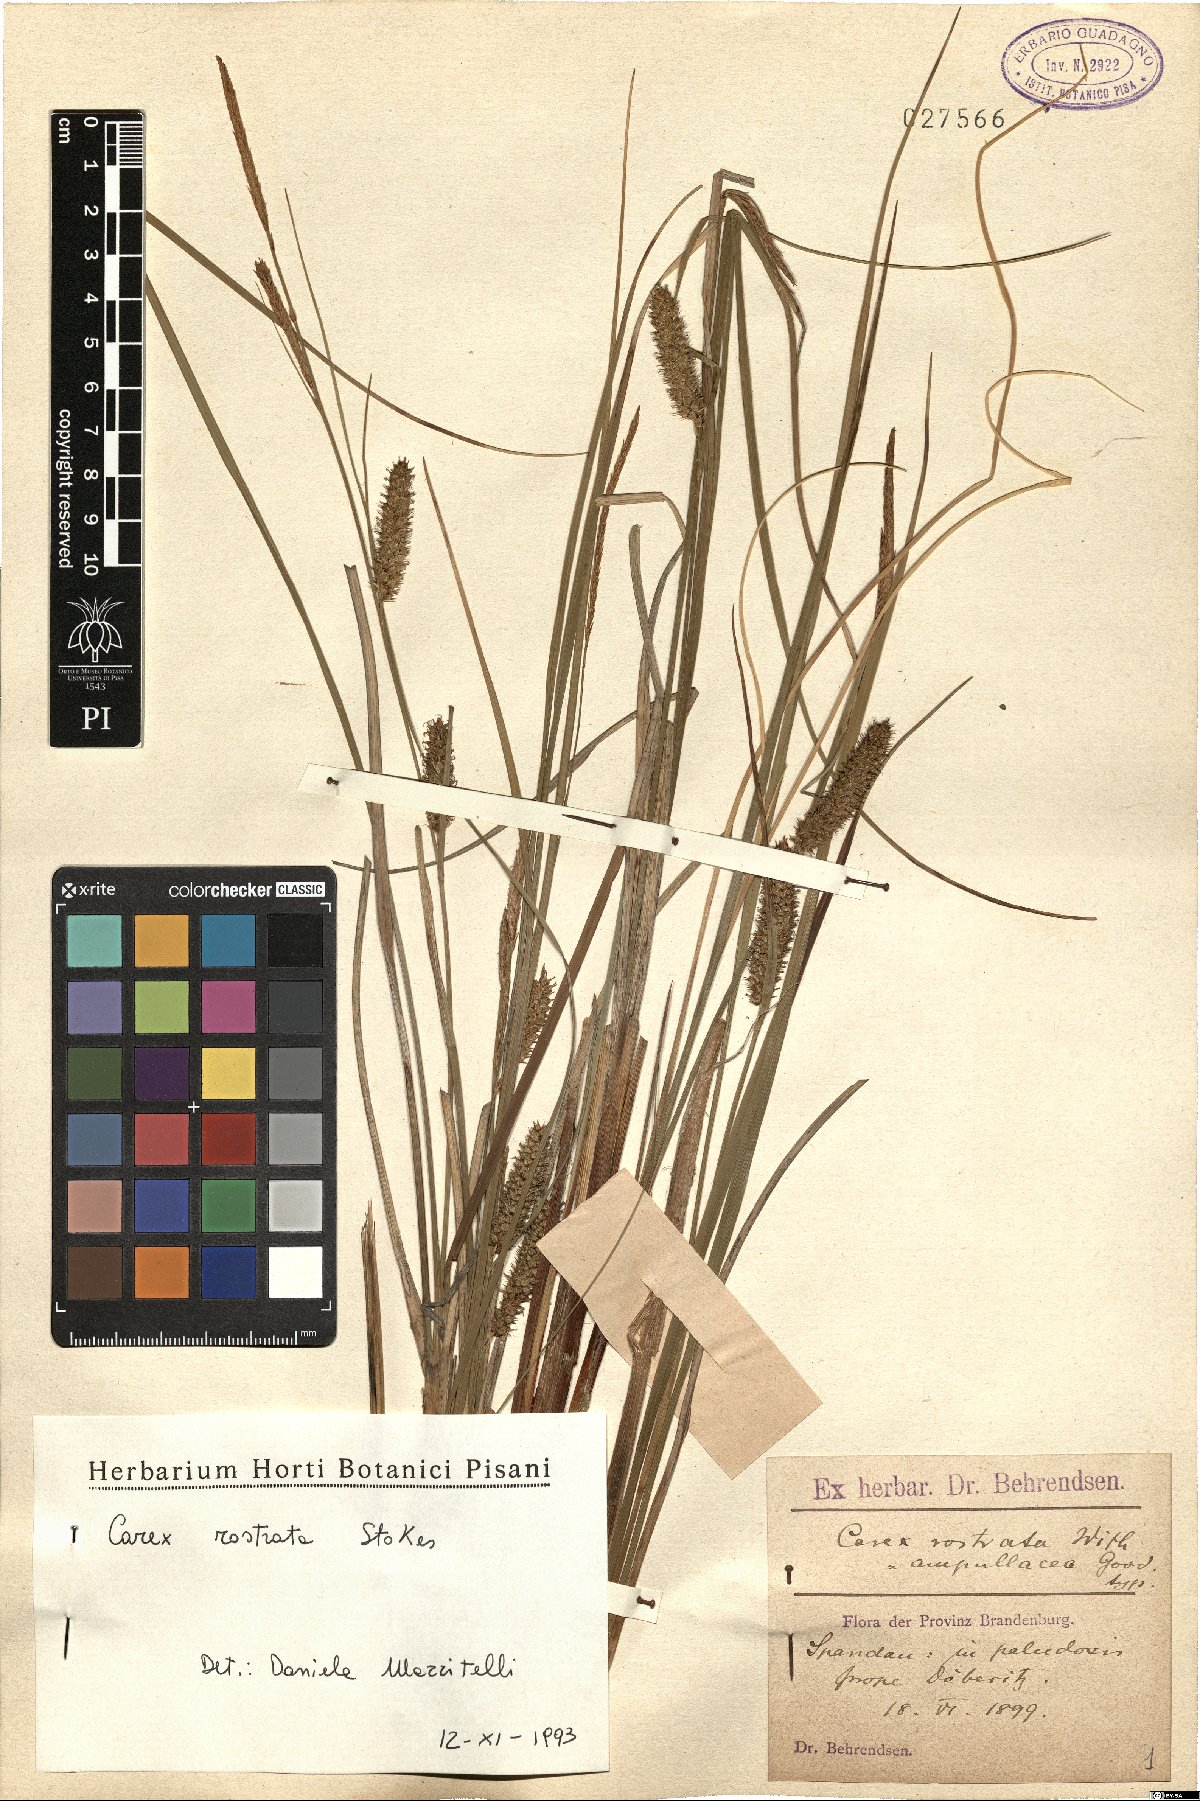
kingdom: Plantae
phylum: Tracheophyta
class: Liliopsida
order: Poales
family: Cyperaceae
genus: Carex
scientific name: Carex rostrata
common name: Bottle sedge
